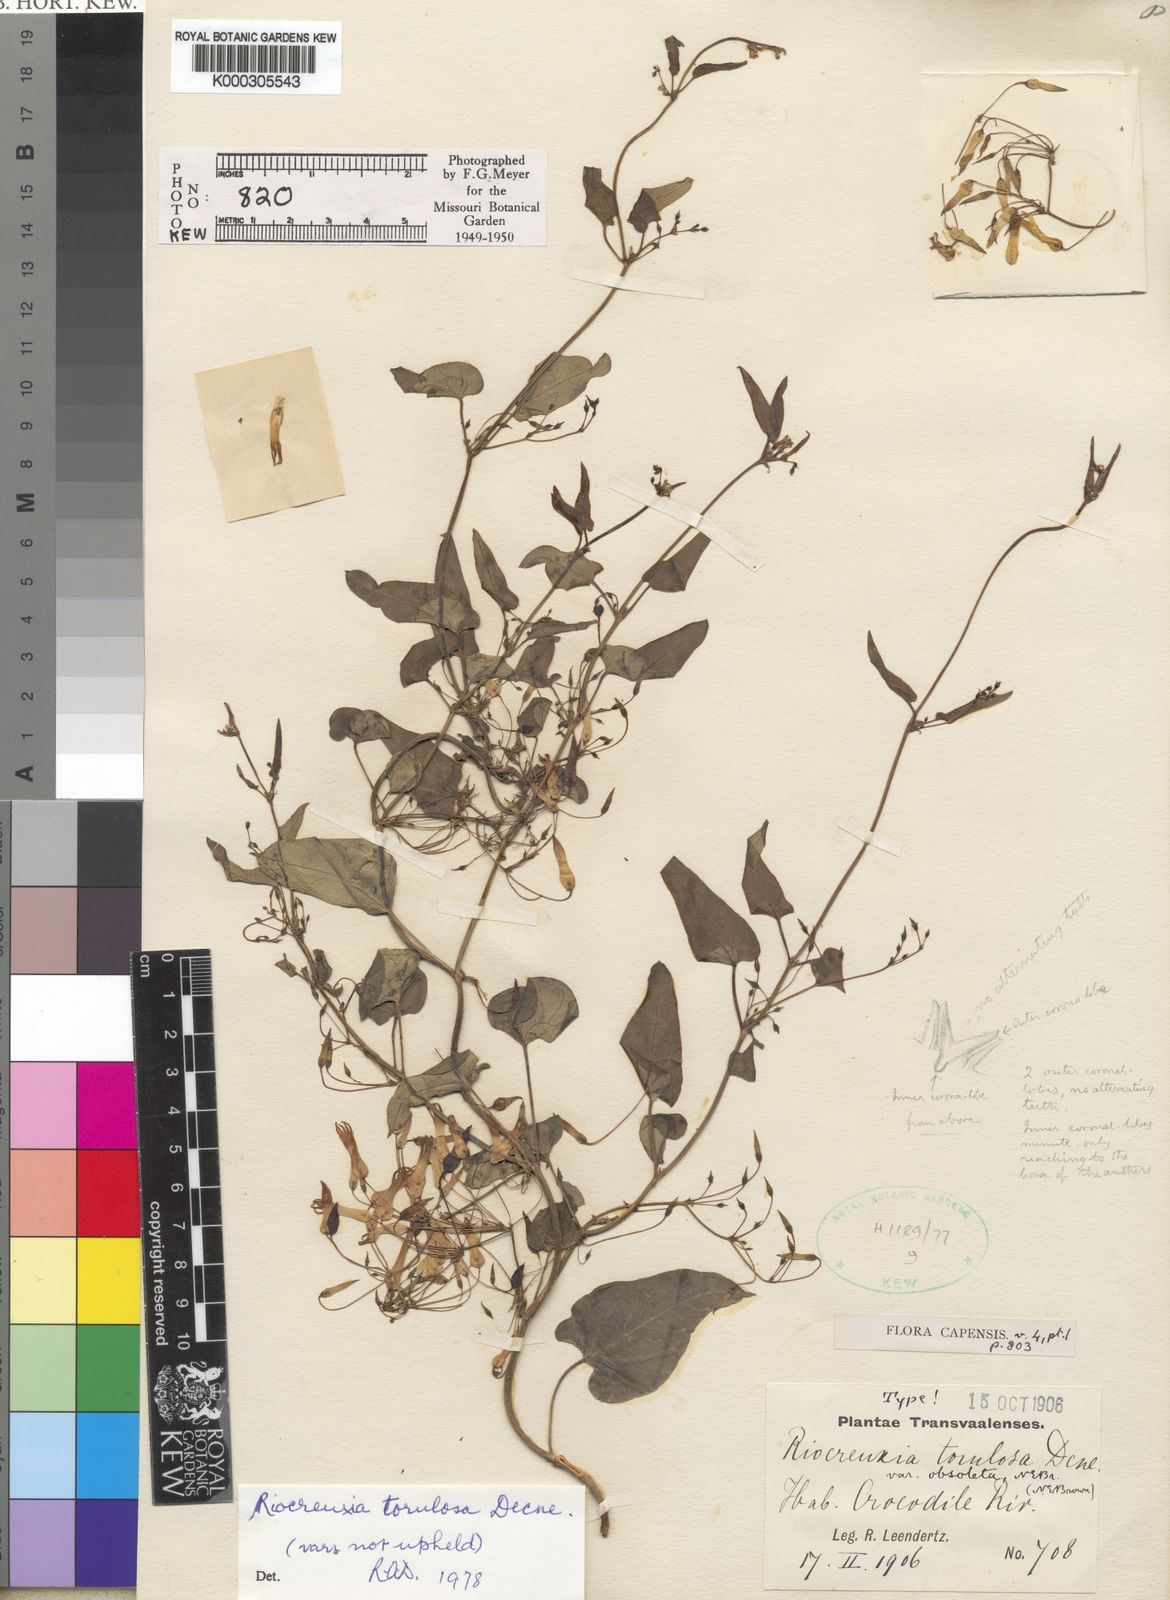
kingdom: Plantae
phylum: Tracheophyta
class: Magnoliopsida
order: Gentianales
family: Apocynaceae
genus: Riocreuxia
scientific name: Riocreuxia torulosa
